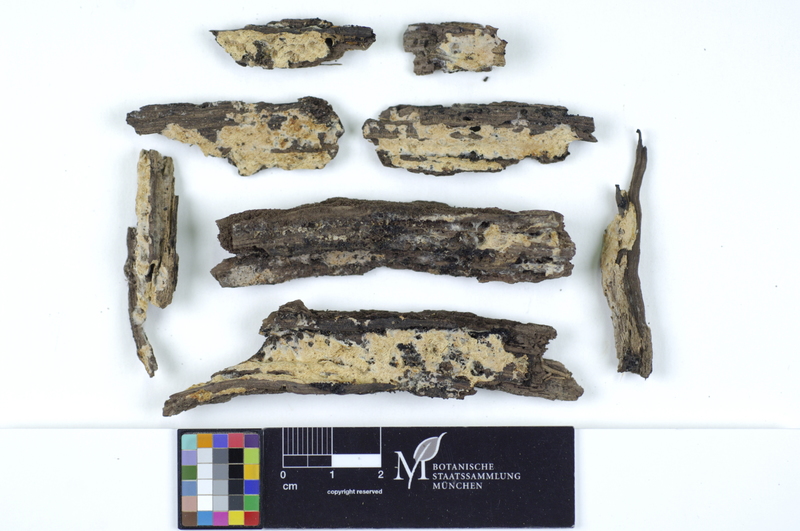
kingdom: Fungi
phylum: Basidiomycota
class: Agaricomycetes
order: Polyporales
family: Irpicaceae
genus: Ceriporia
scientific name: Ceriporia excelsa
